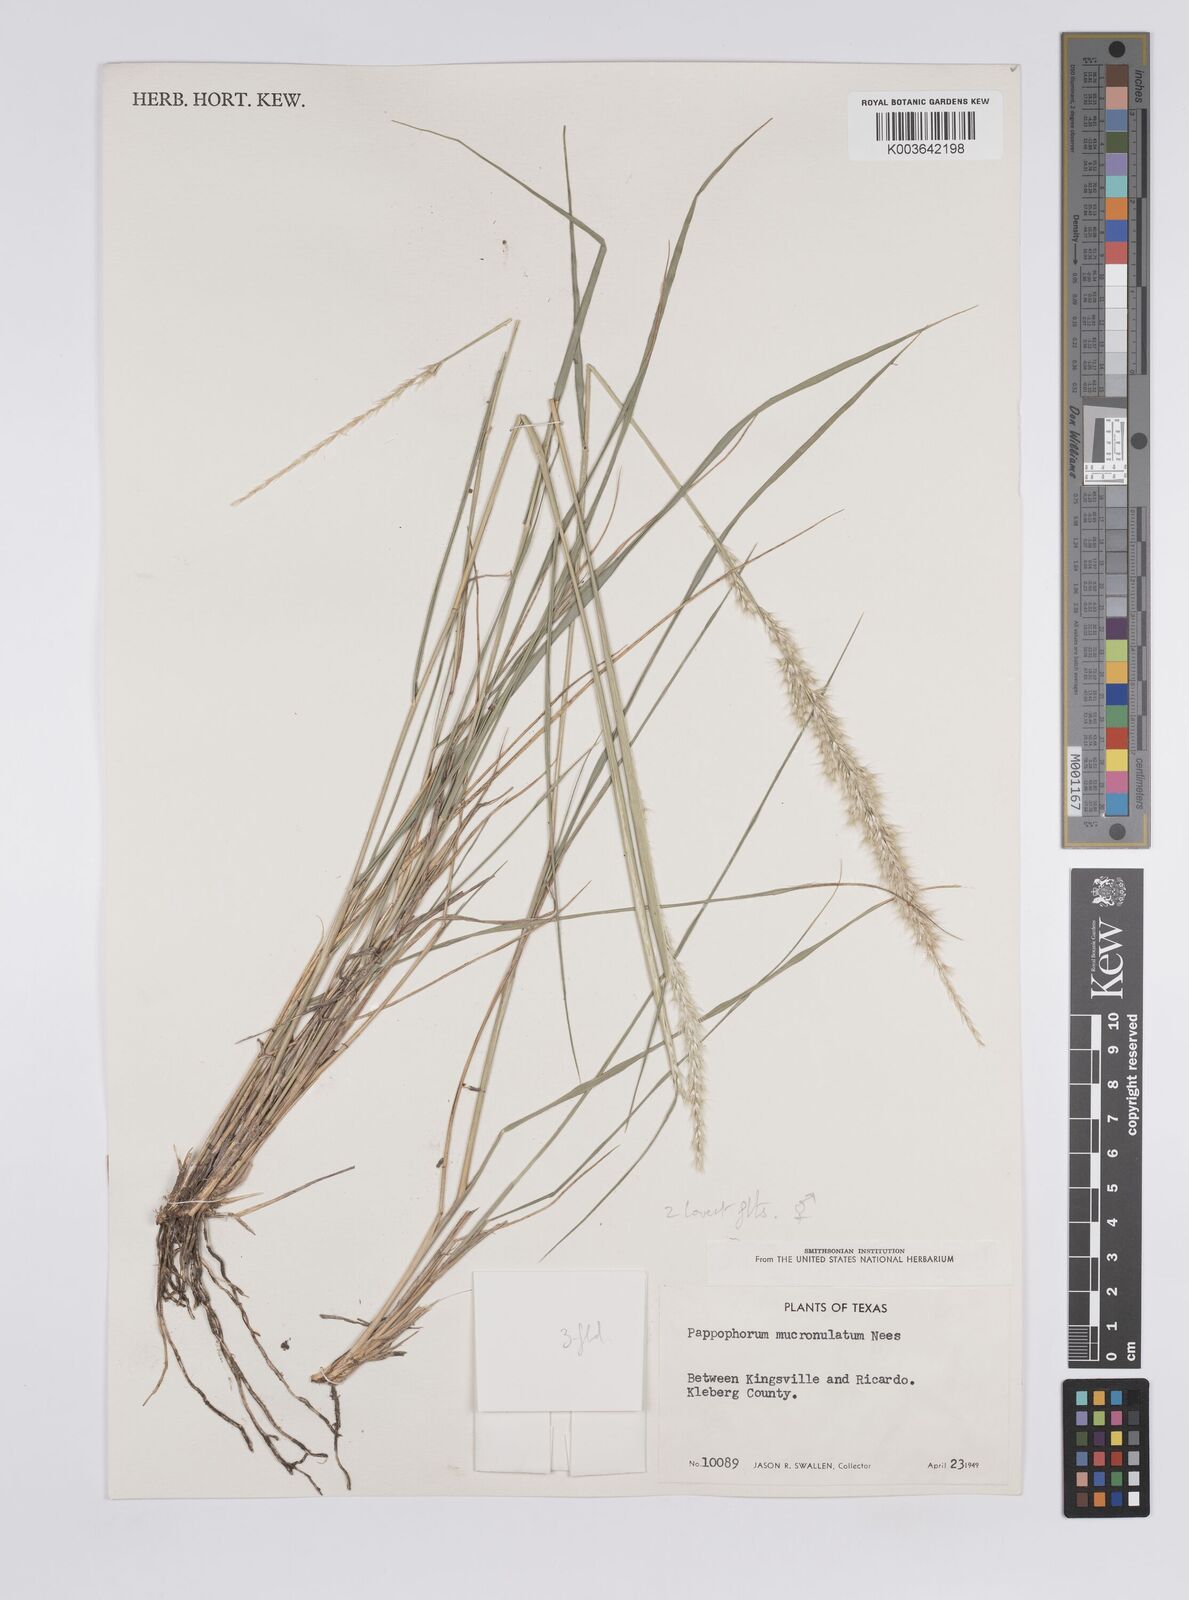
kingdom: Plantae
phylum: Tracheophyta
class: Liliopsida
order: Poales
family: Poaceae
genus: Pappophorum
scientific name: Pappophorum mucronulatum
